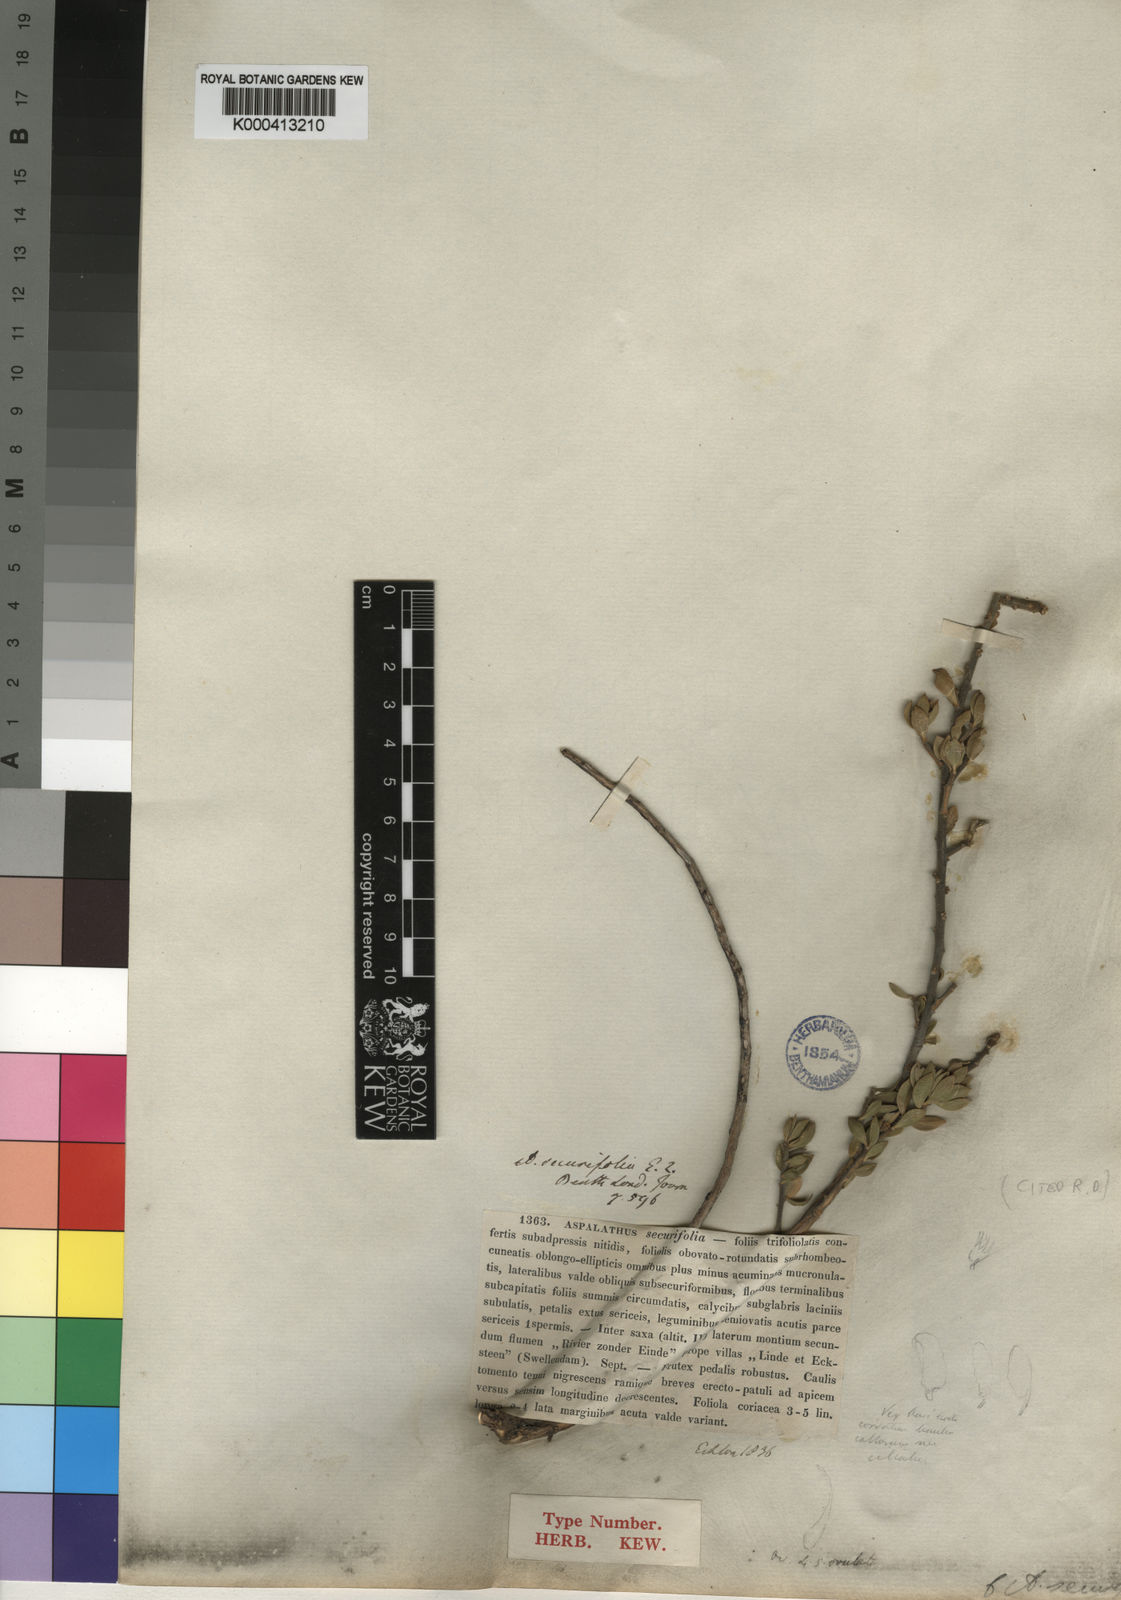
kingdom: Plantae
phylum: Tracheophyta
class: Magnoliopsida
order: Fabales
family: Fabaceae
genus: Aspalathus
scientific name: Aspalathus securifolia
